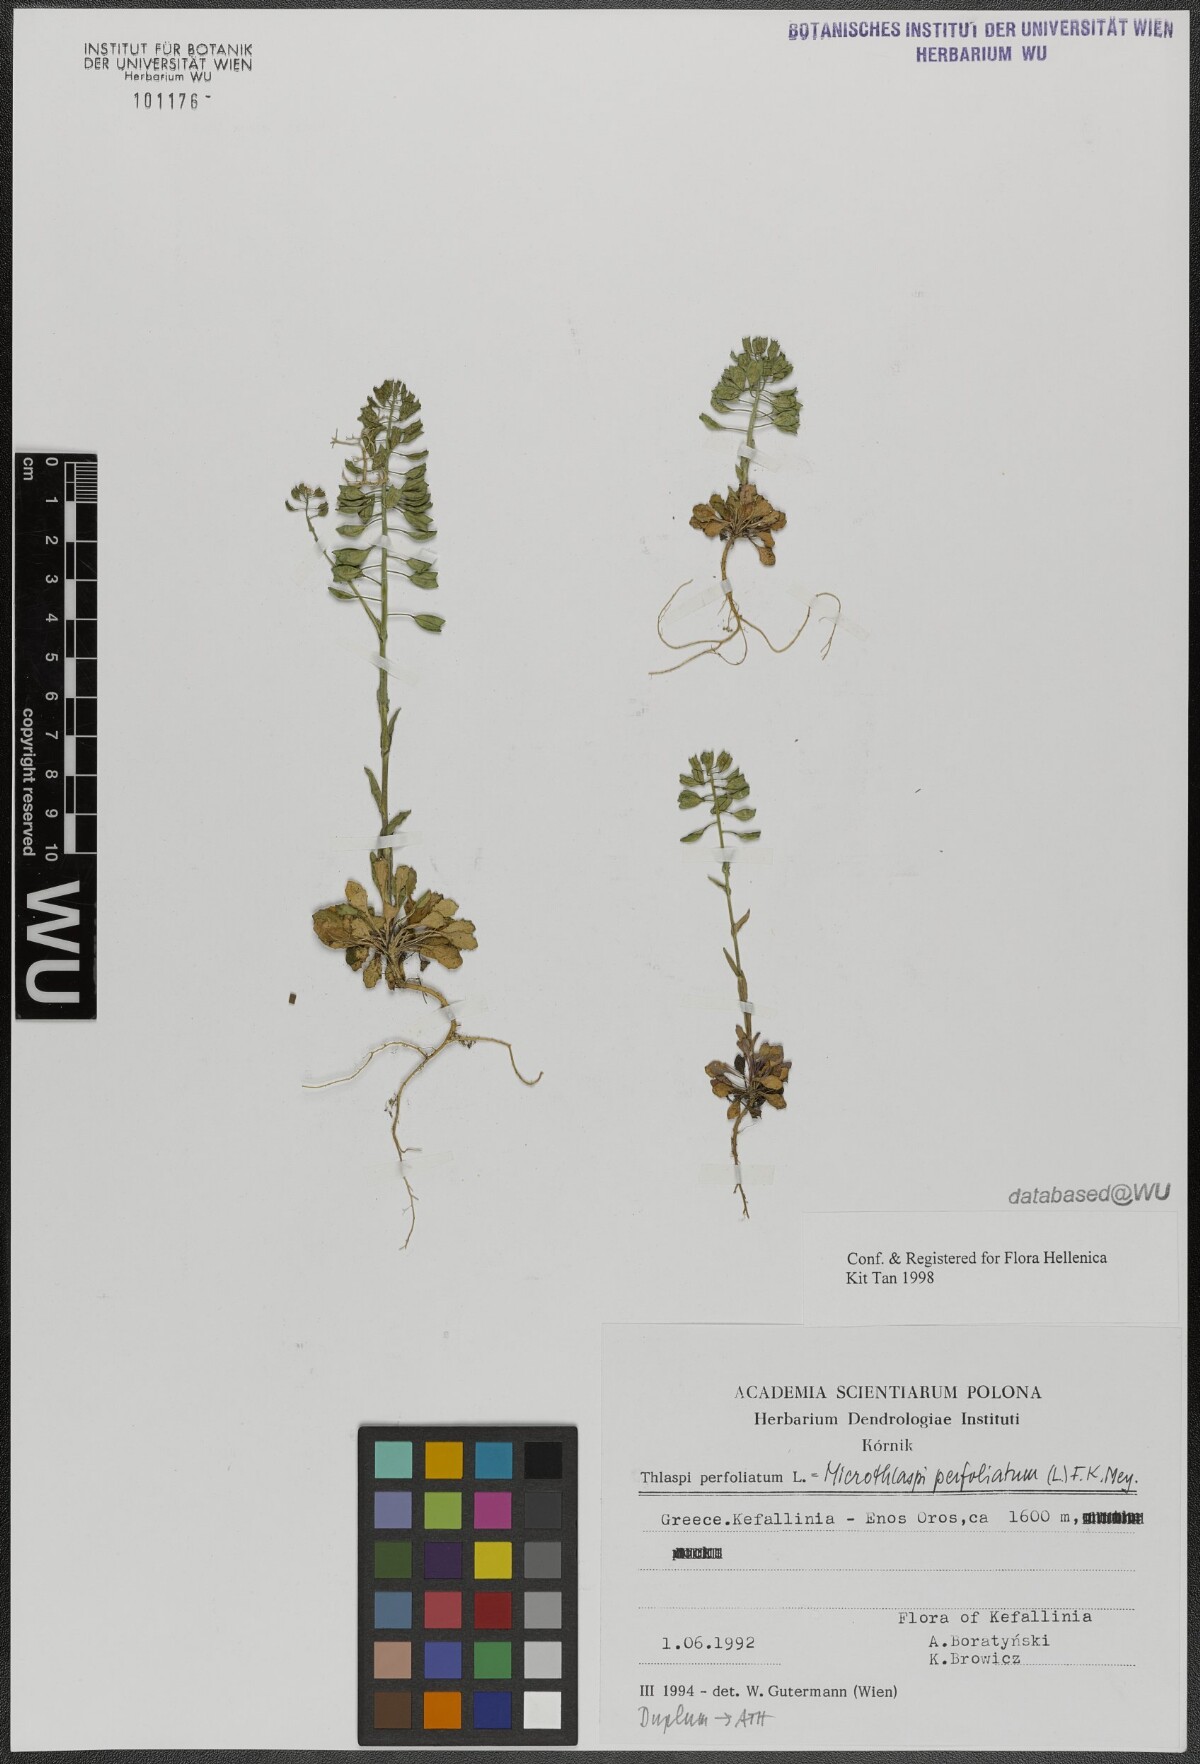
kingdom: Plantae
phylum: Tracheophyta
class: Magnoliopsida
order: Brassicales
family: Brassicaceae
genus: Noccaea
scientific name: Noccaea perfoliata
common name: Perfoliate pennycress
